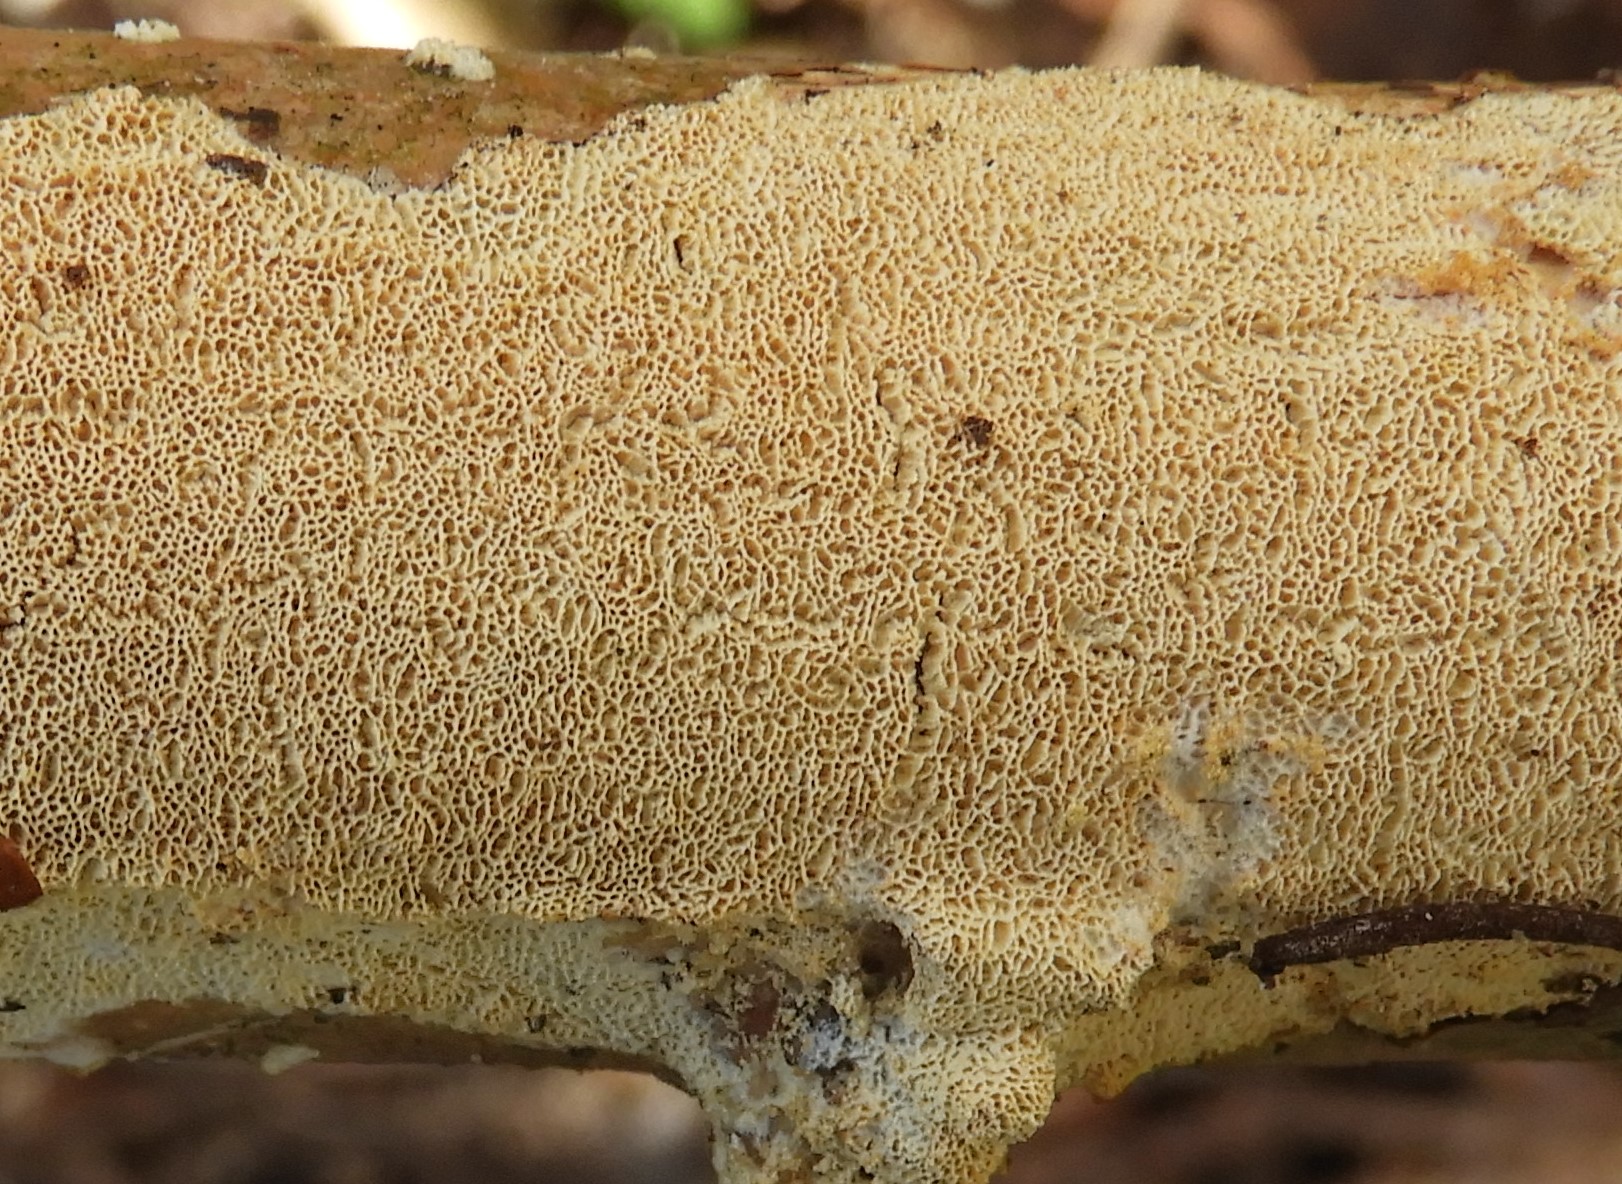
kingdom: Fungi
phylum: Basidiomycota
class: Agaricomycetes
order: Polyporales
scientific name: Polyporales
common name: poresvampordenen
